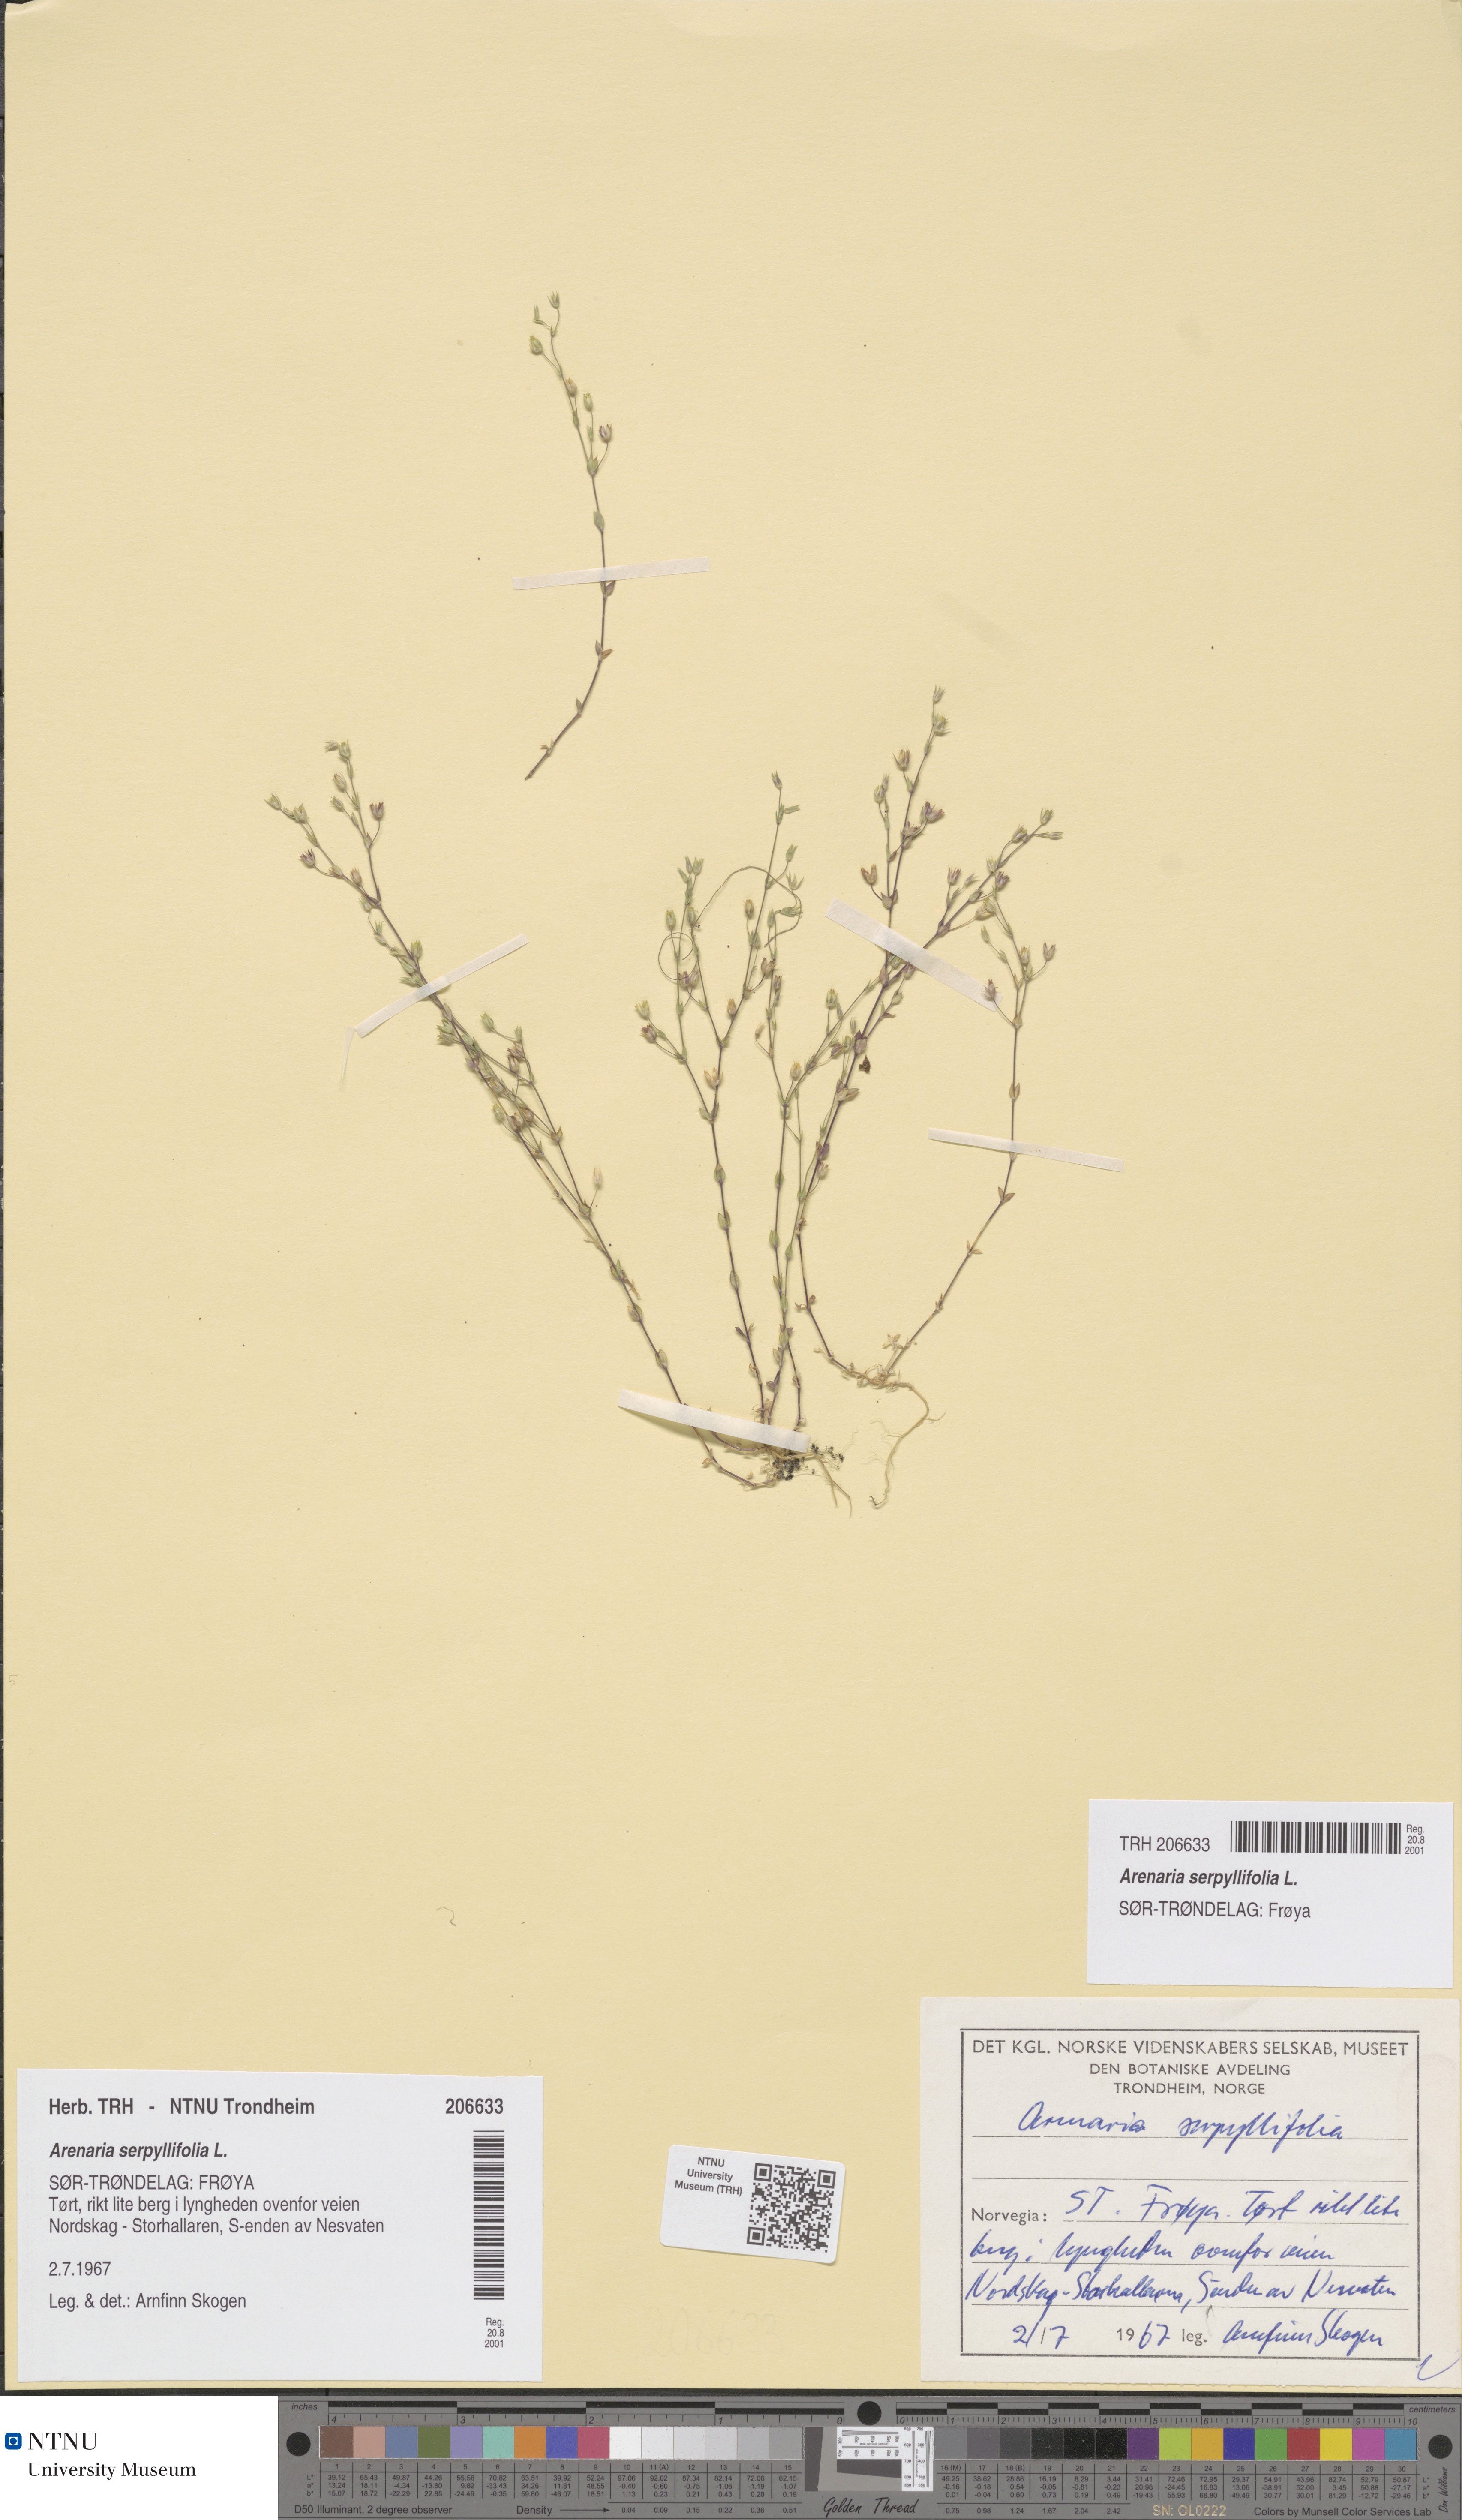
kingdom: Plantae
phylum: Tracheophyta
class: Magnoliopsida
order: Caryophyllales
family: Caryophyllaceae
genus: Arenaria
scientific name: Arenaria serpyllifolia
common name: Thyme-leaved sandwort
